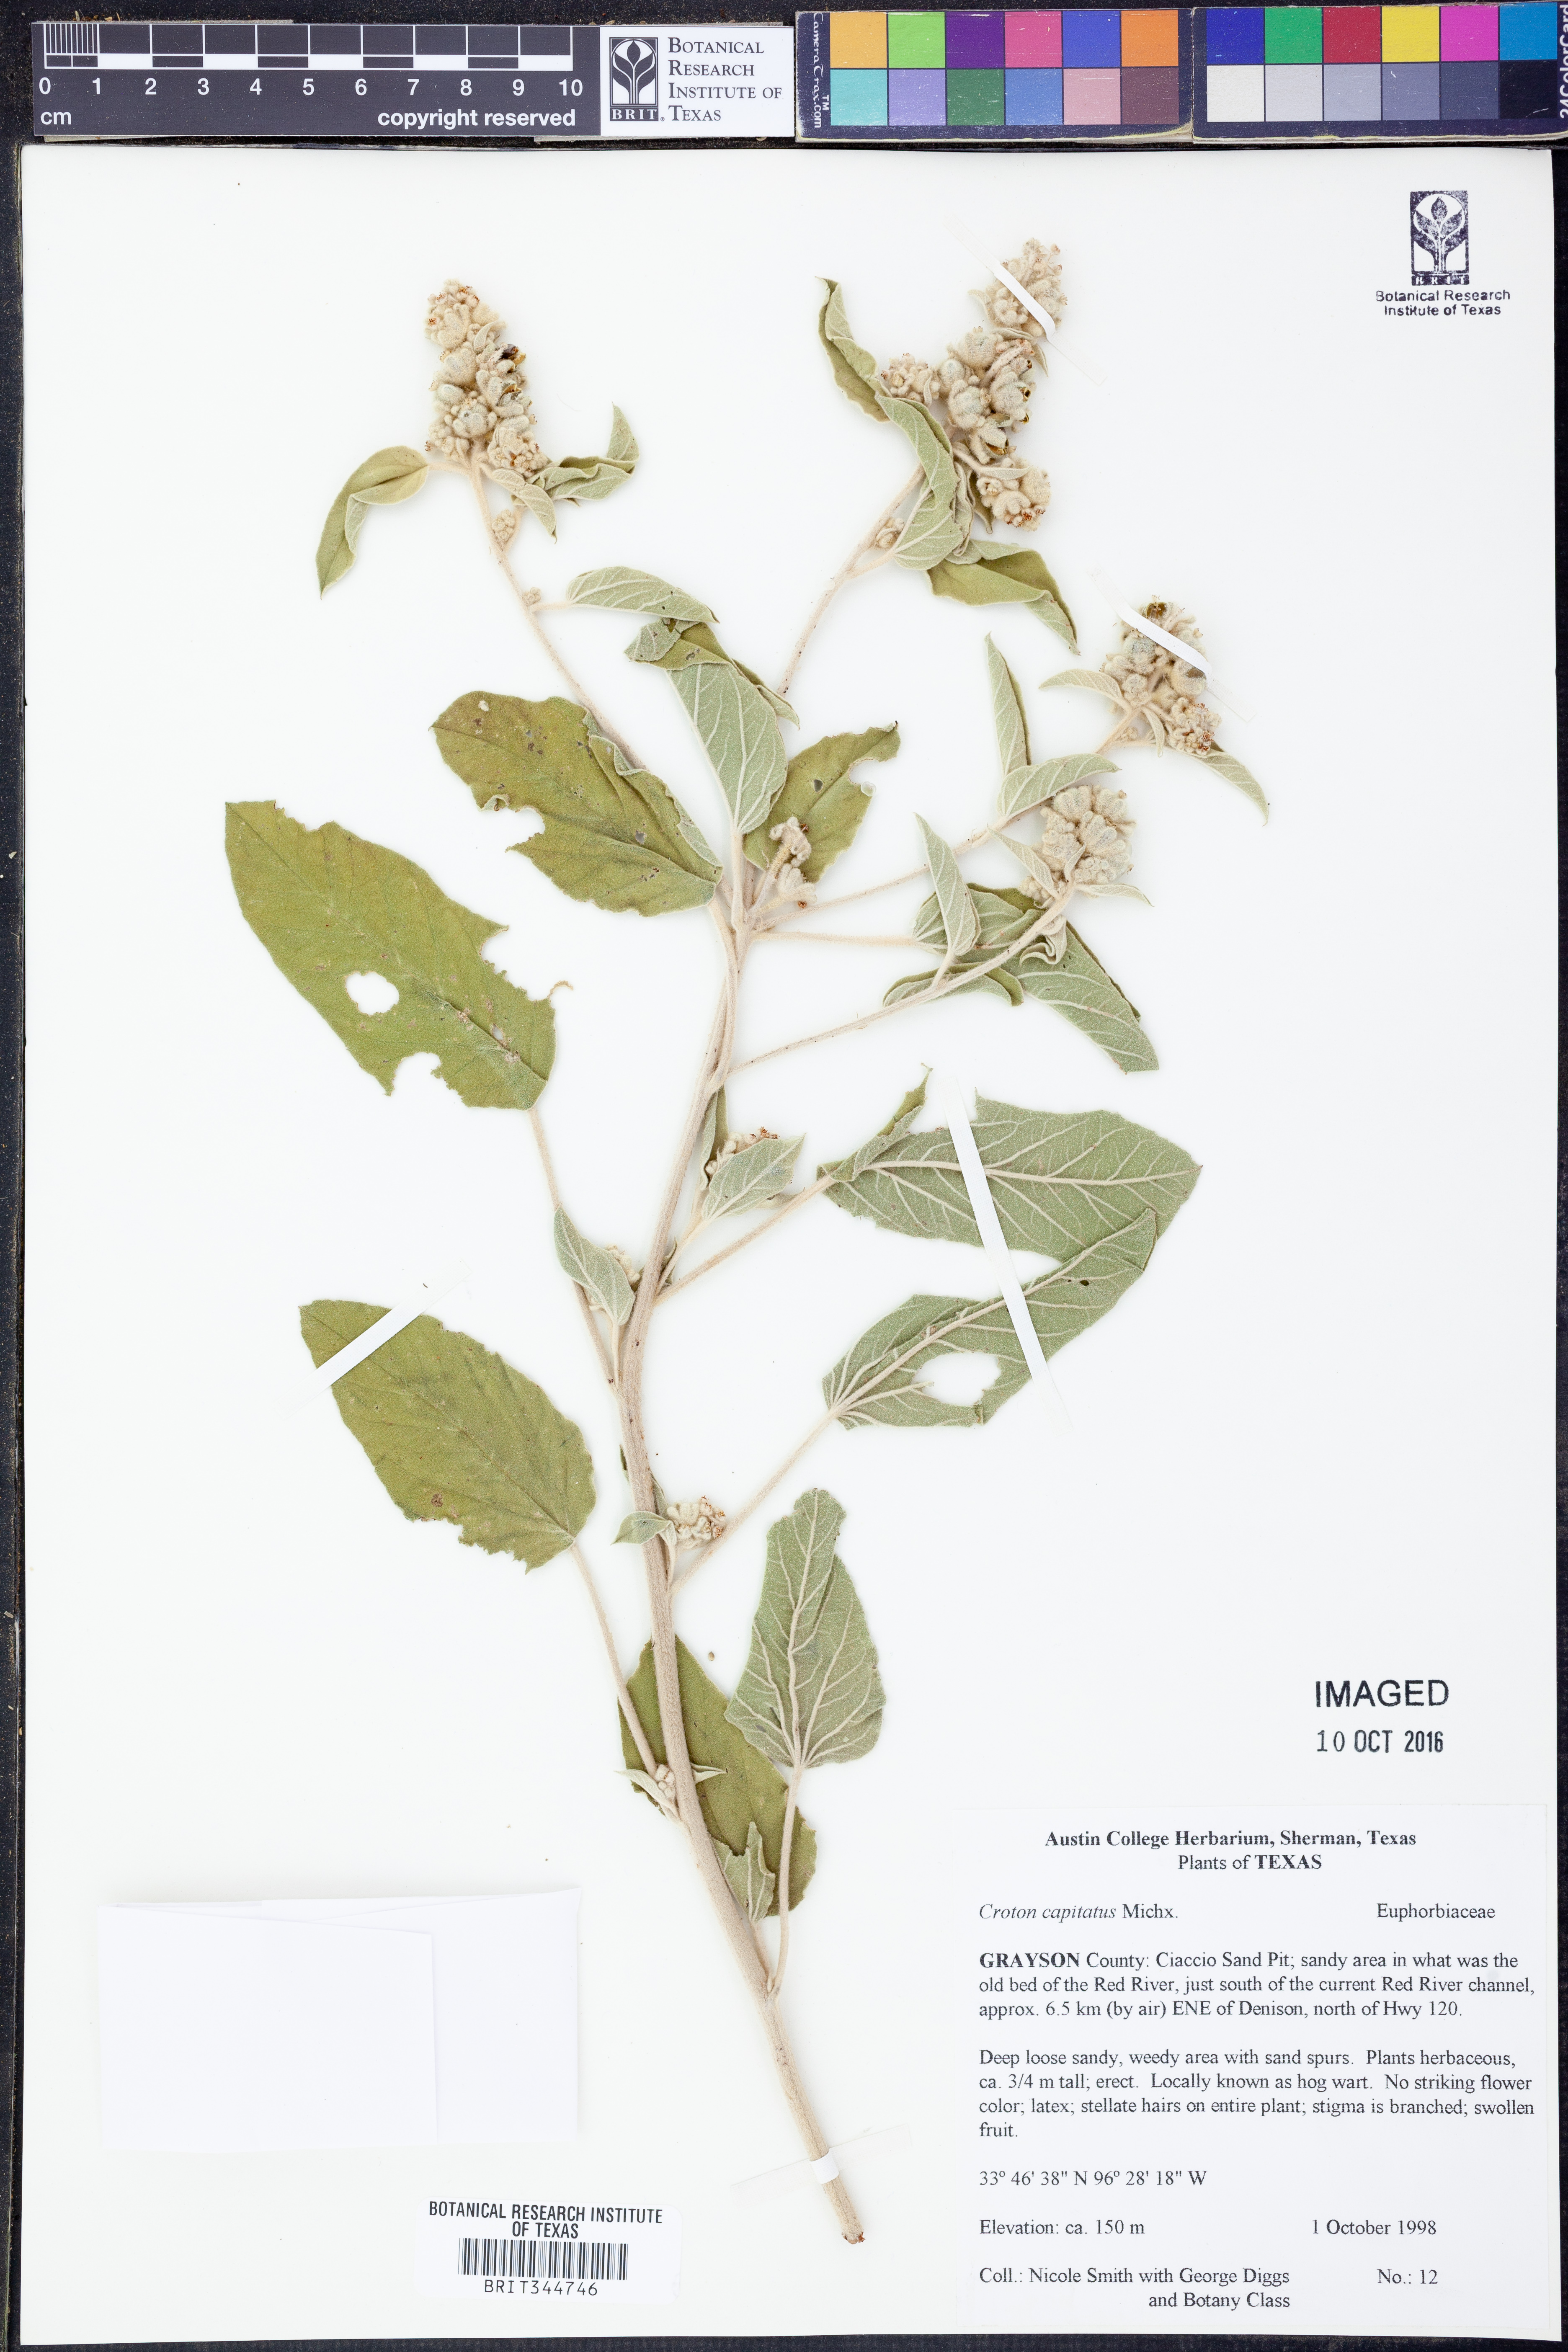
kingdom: Plantae
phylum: Tracheophyta
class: Magnoliopsida
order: Malpighiales
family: Euphorbiaceae
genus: Croton
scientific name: Croton capitatus
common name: Woolly croton
